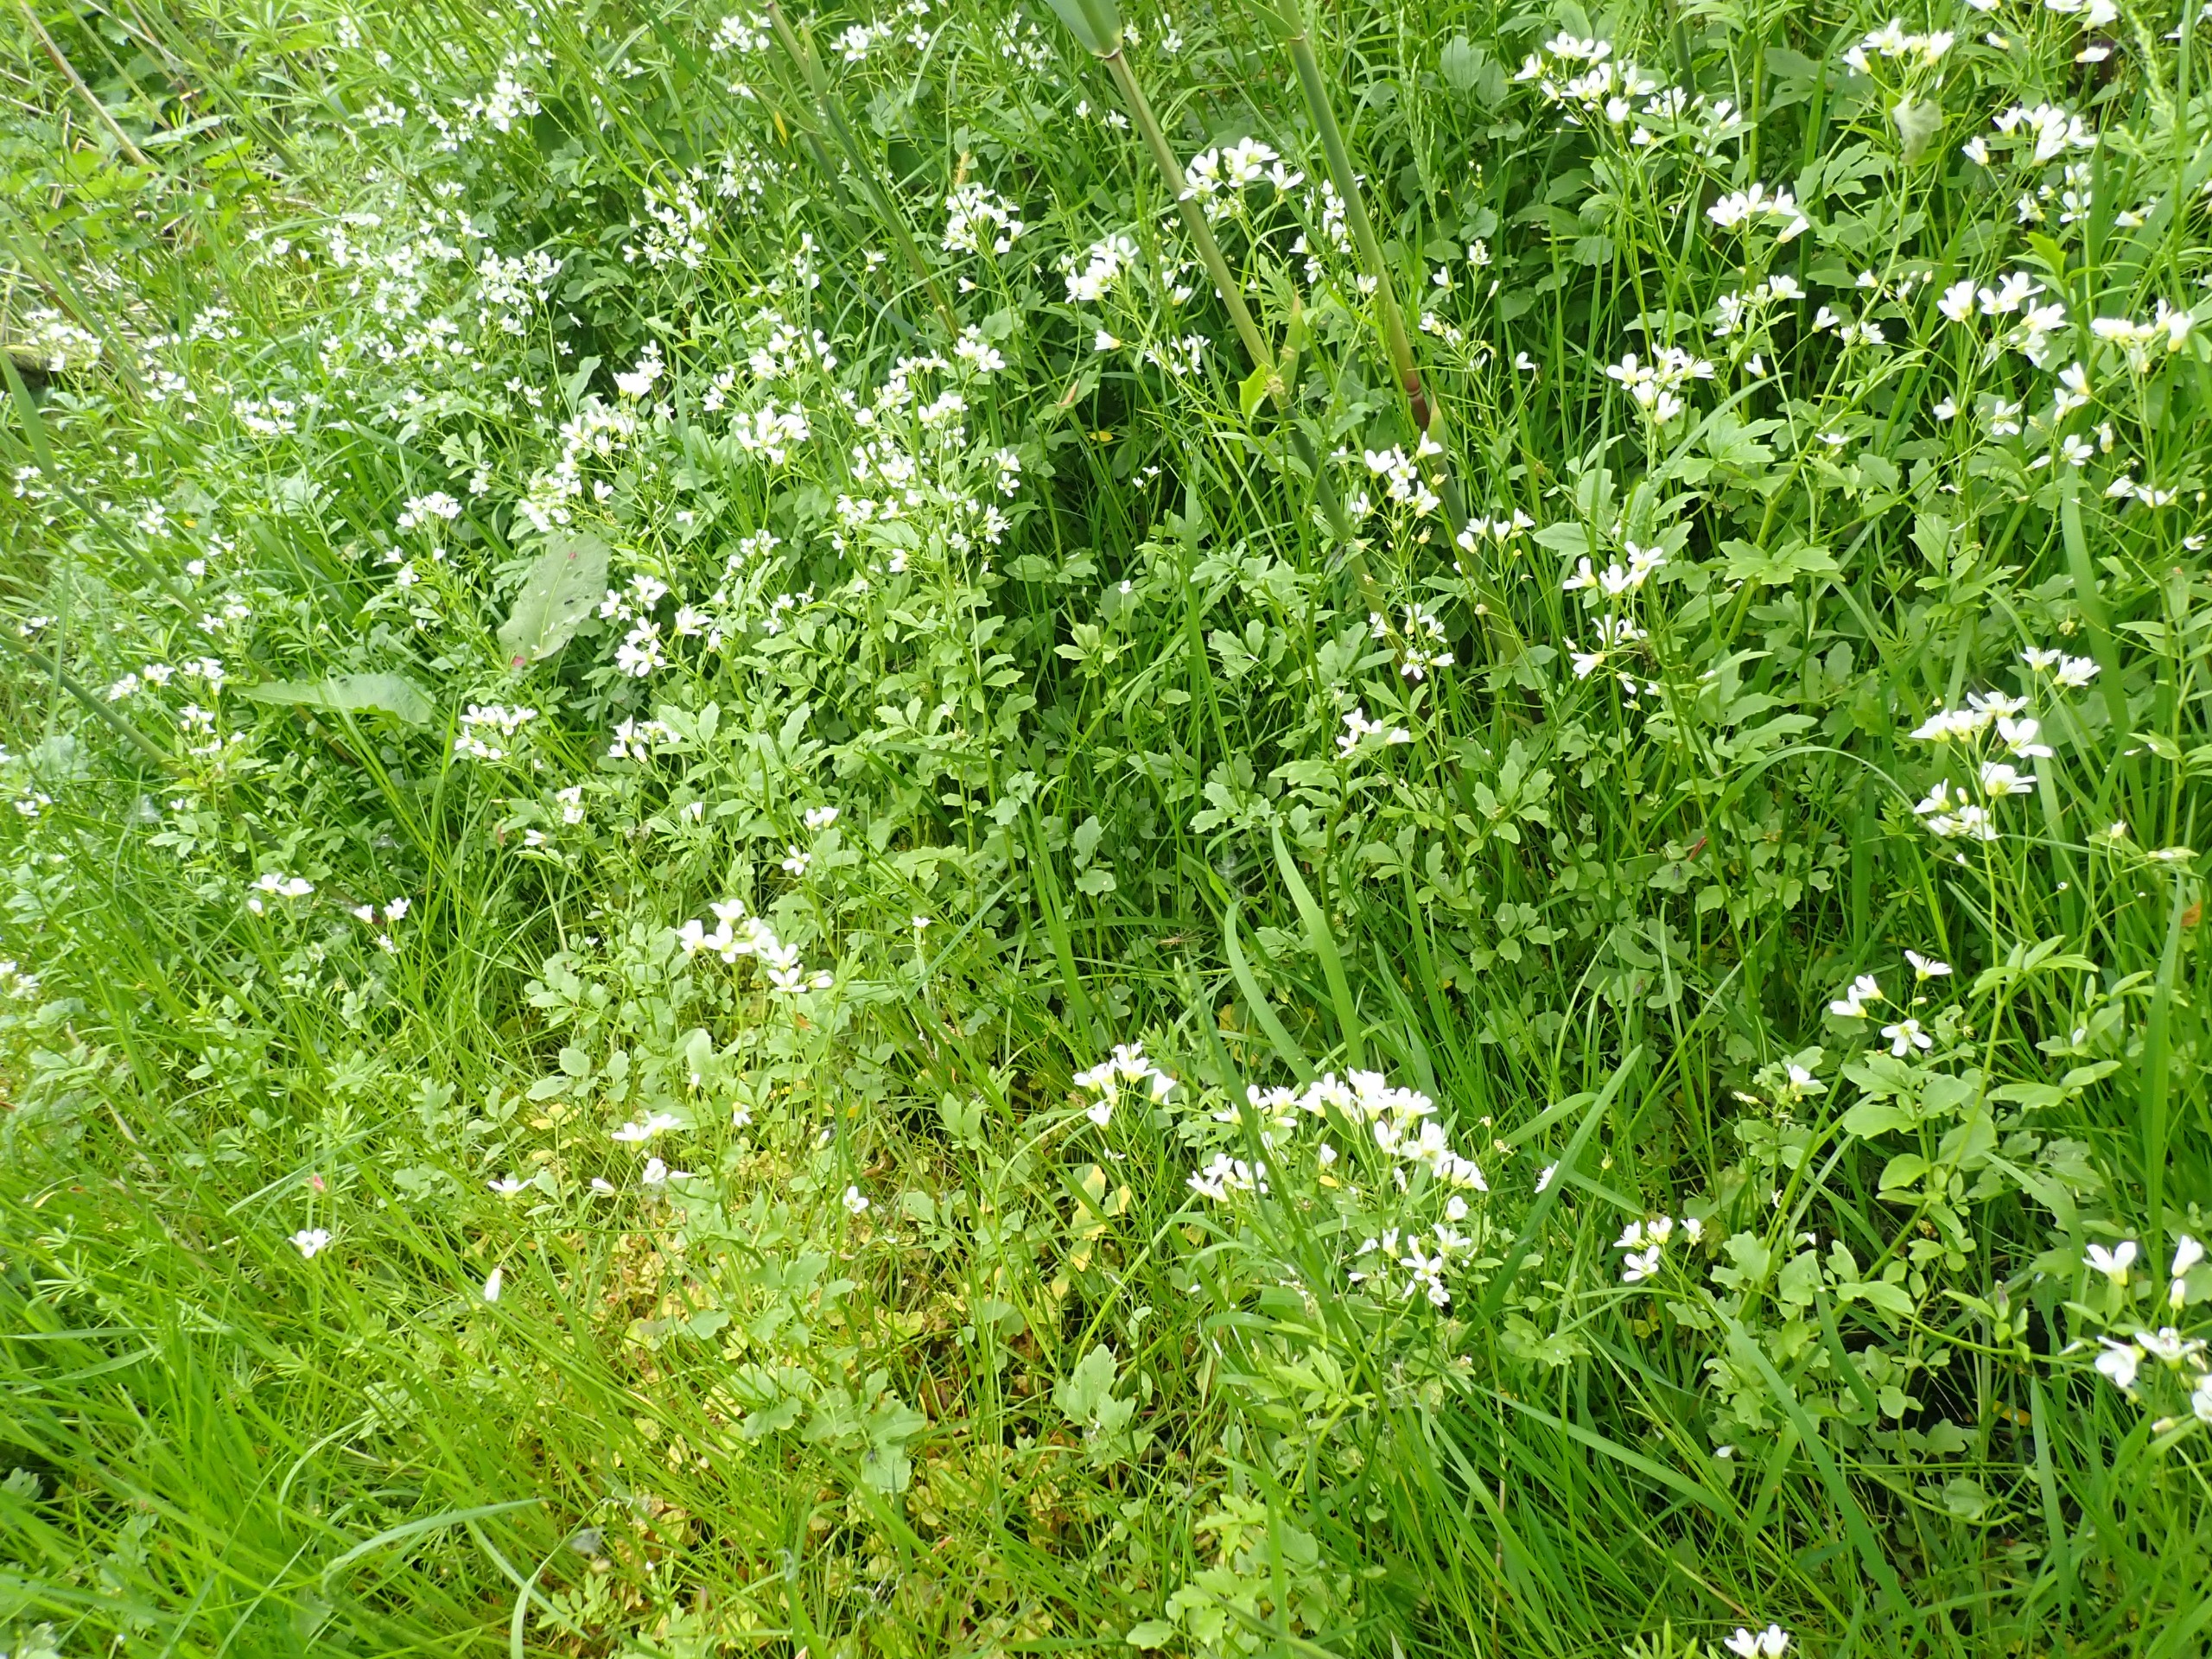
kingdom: Plantae
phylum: Tracheophyta
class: Magnoliopsida
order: Brassicales
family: Brassicaceae
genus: Cardamine
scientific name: Cardamine amara
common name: Vandkarse
